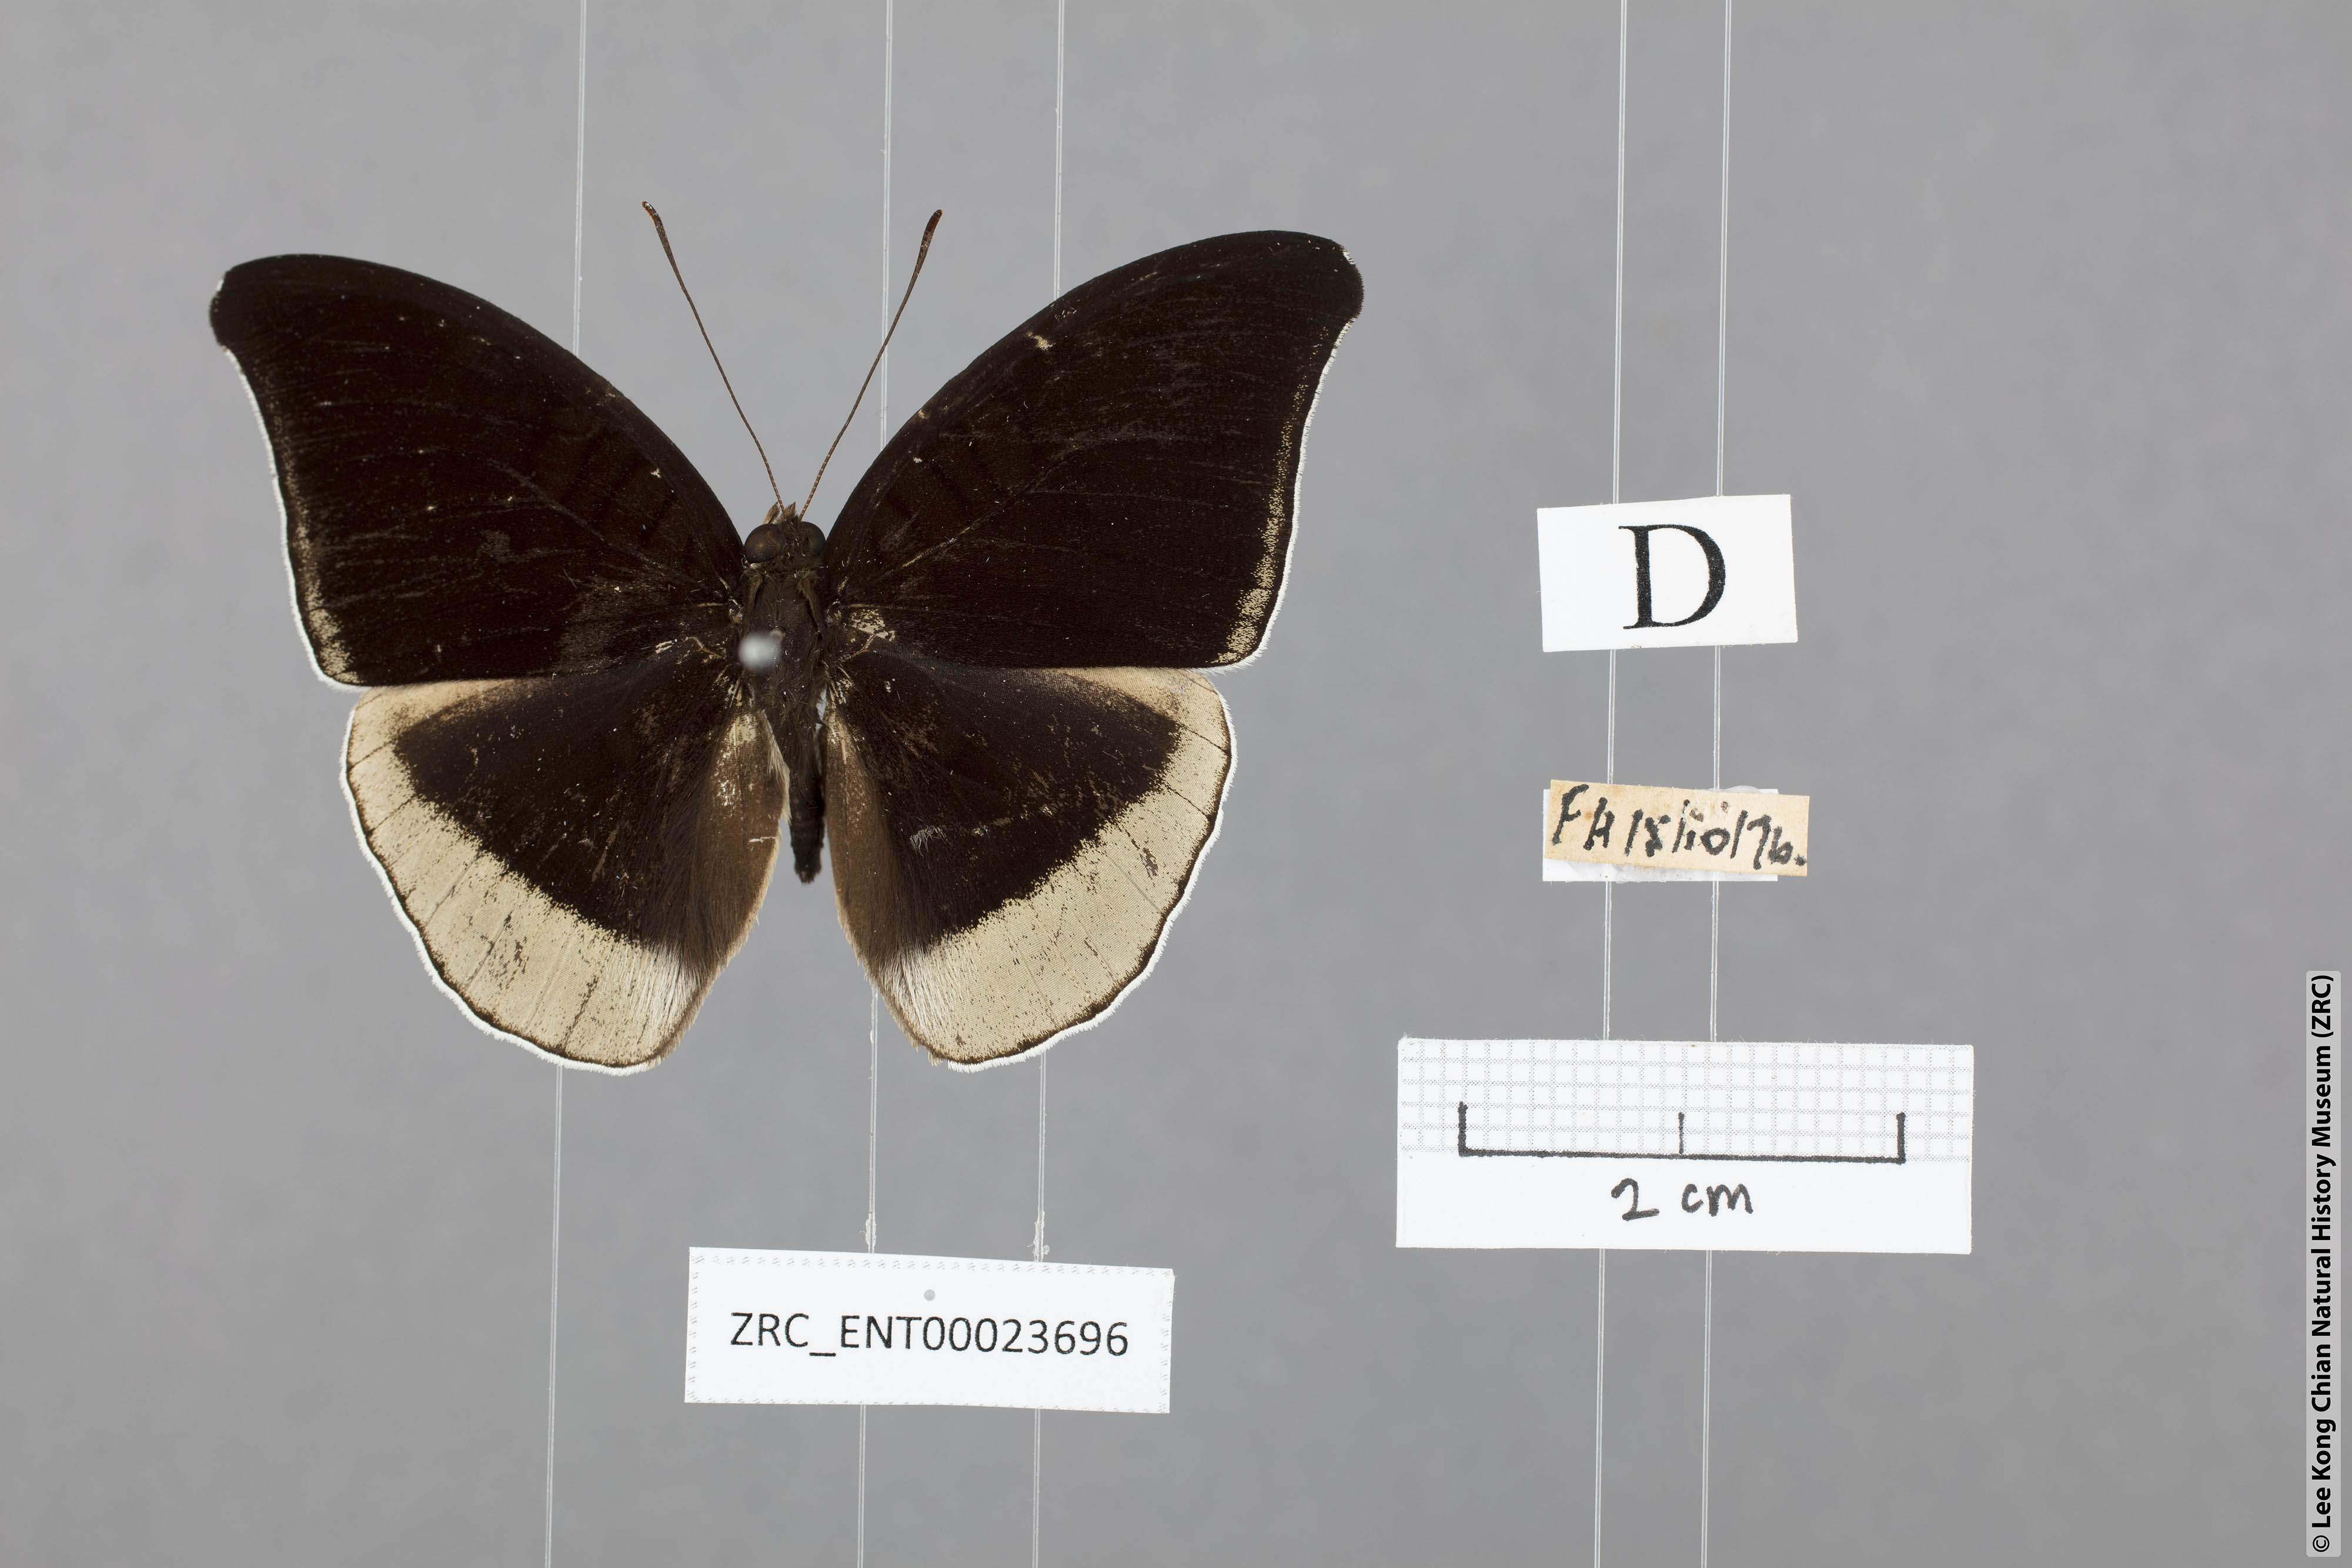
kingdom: Animalia
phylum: Arthropoda
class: Insecta
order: Lepidoptera
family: Nymphalidae
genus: Tanaecia
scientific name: Tanaecia lepidea
